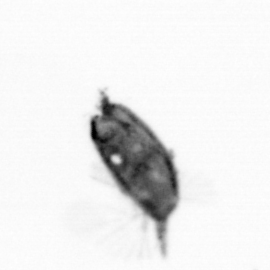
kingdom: Animalia
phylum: Arthropoda
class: Maxillopoda
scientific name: Maxillopoda
